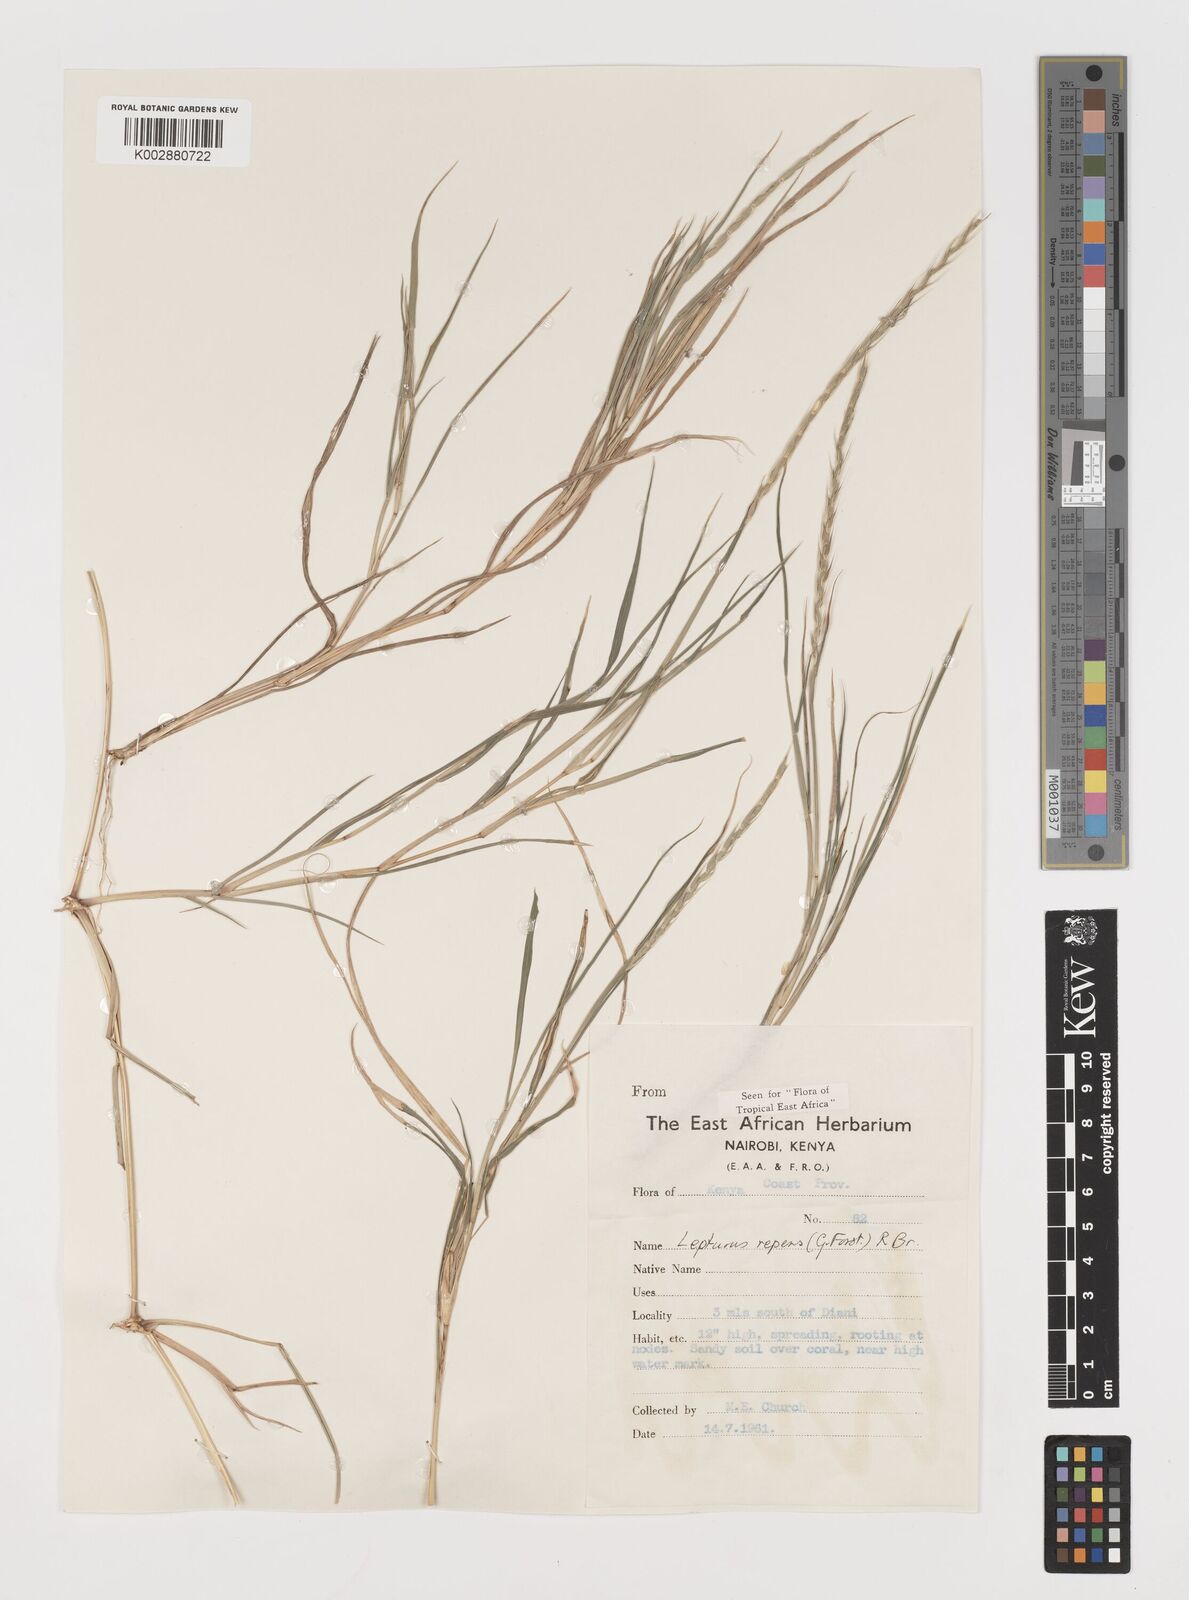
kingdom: Plantae
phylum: Tracheophyta
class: Liliopsida
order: Poales
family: Poaceae
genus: Lepturus
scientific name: Lepturus repens
